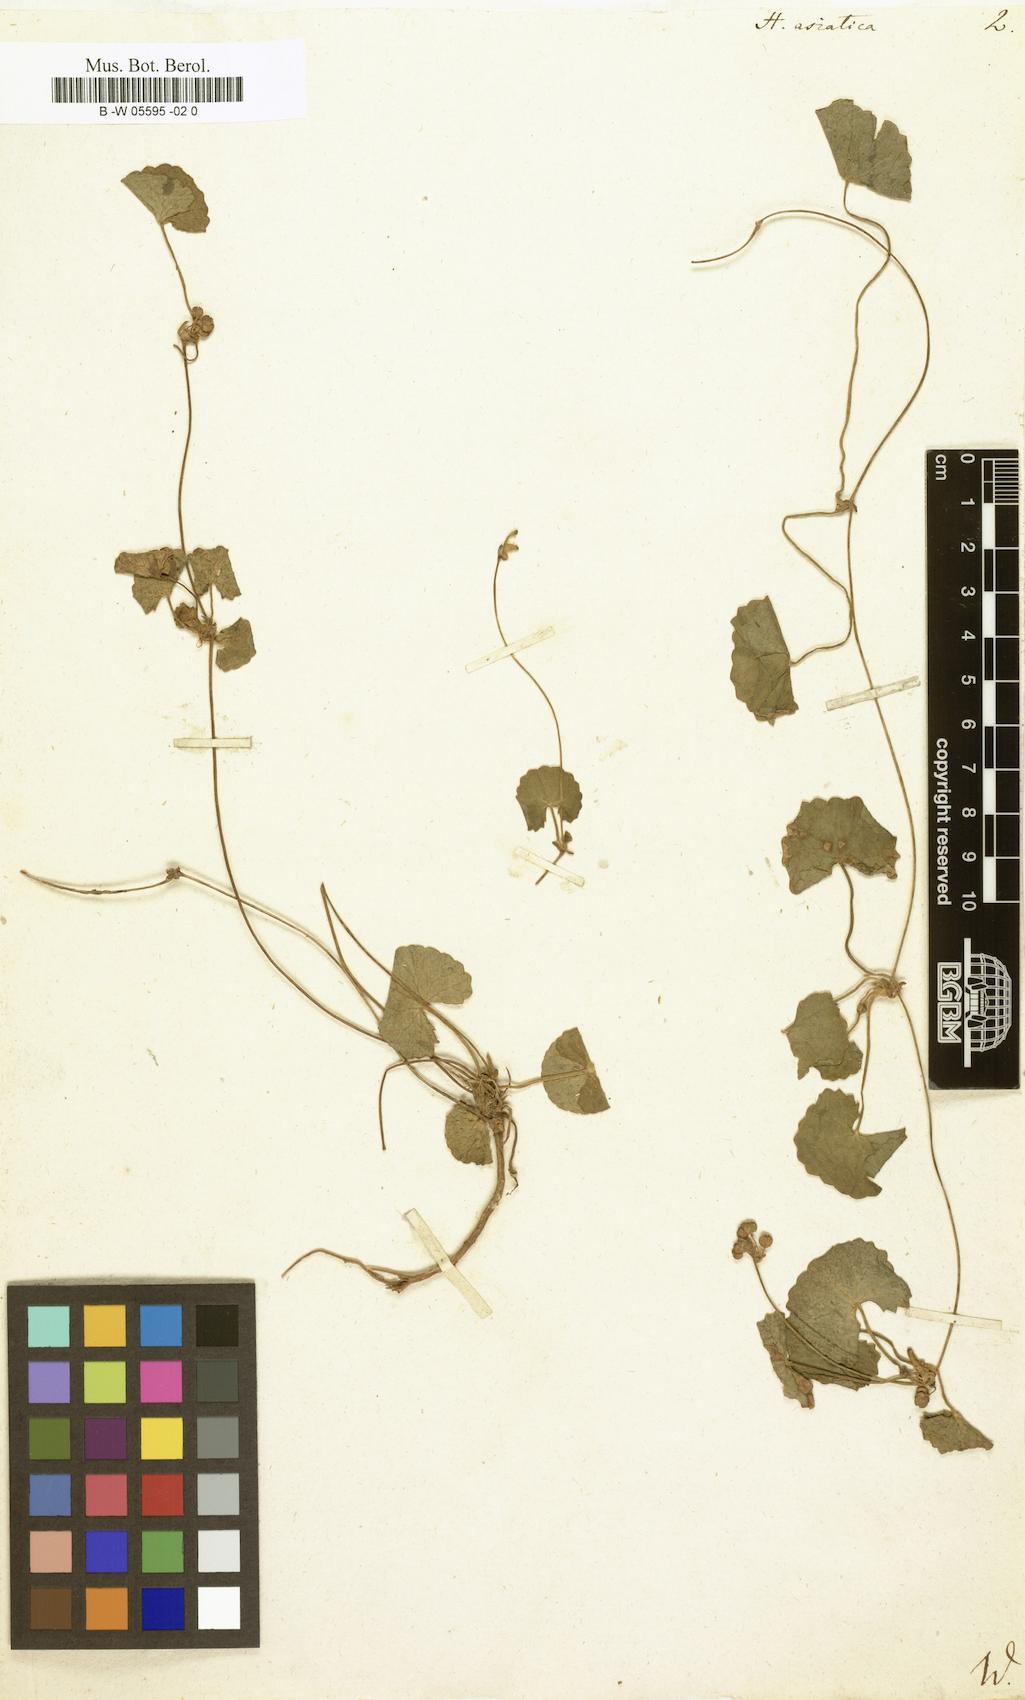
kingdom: Plantae
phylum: Tracheophyta
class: Magnoliopsida
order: Apiales
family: Apiaceae
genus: Centella
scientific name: Centella asiatica
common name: Spadeleaf
